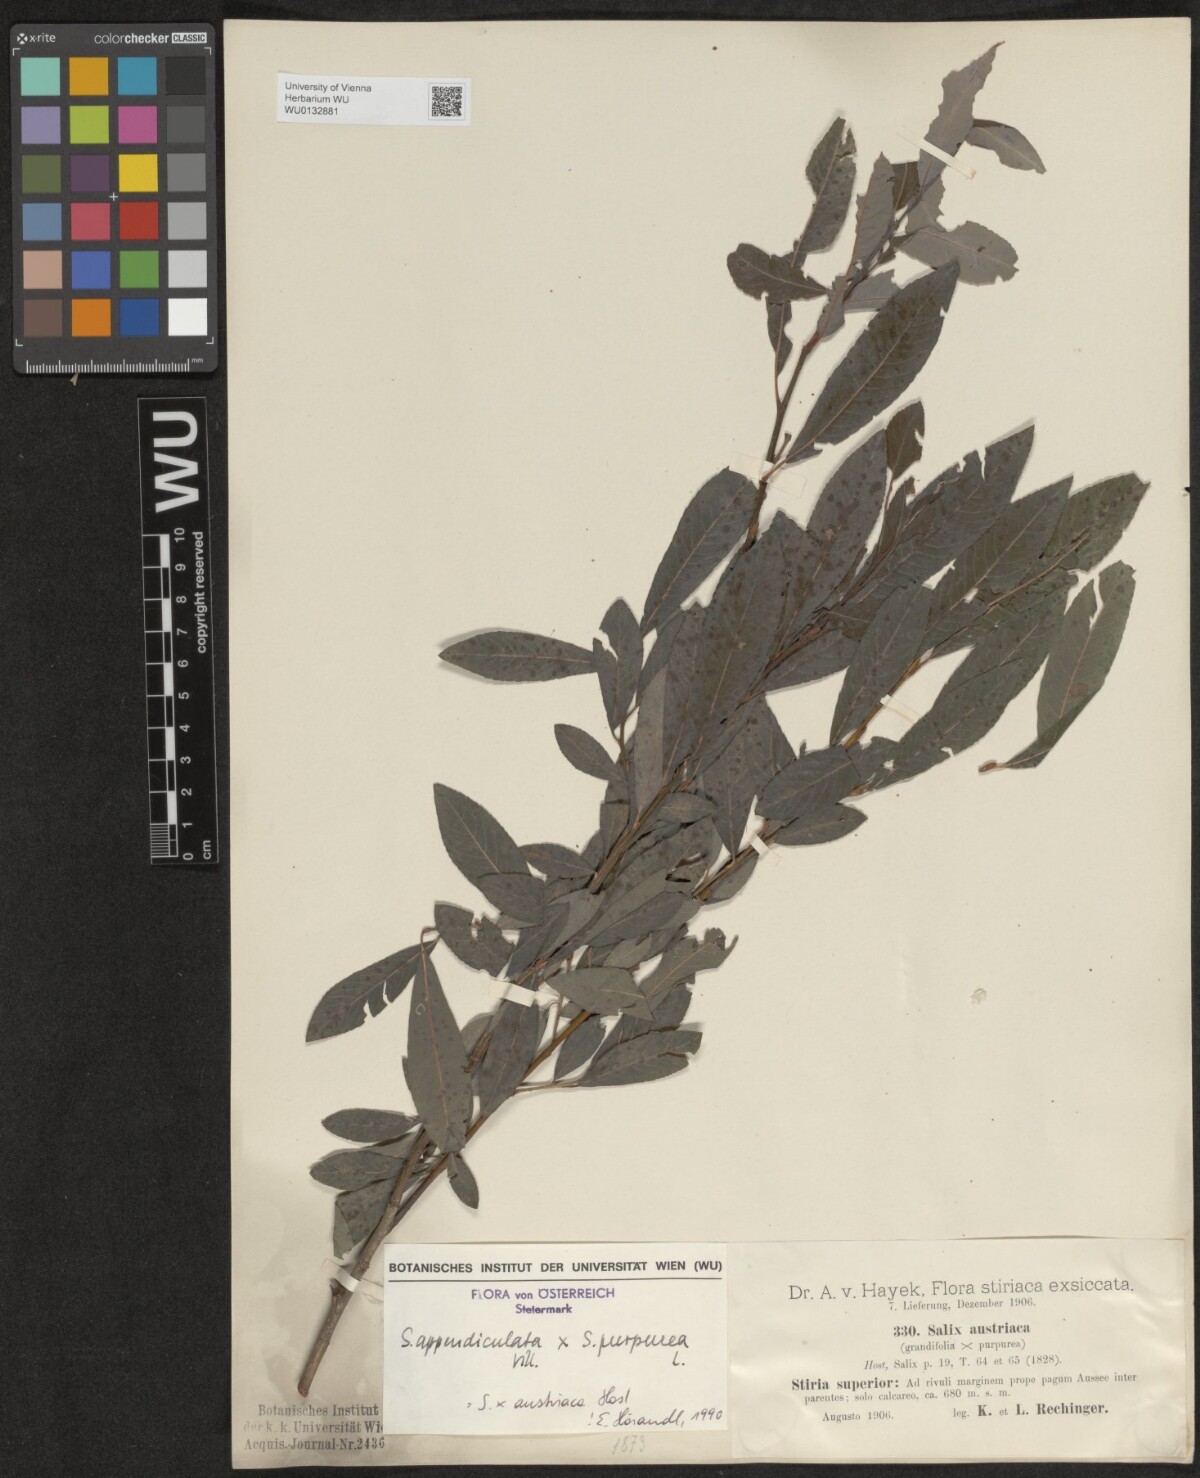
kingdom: Plantae
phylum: Tracheophyta
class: Magnoliopsida
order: Malpighiales
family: Salicaceae
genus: Salix
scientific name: Salix austriaca
